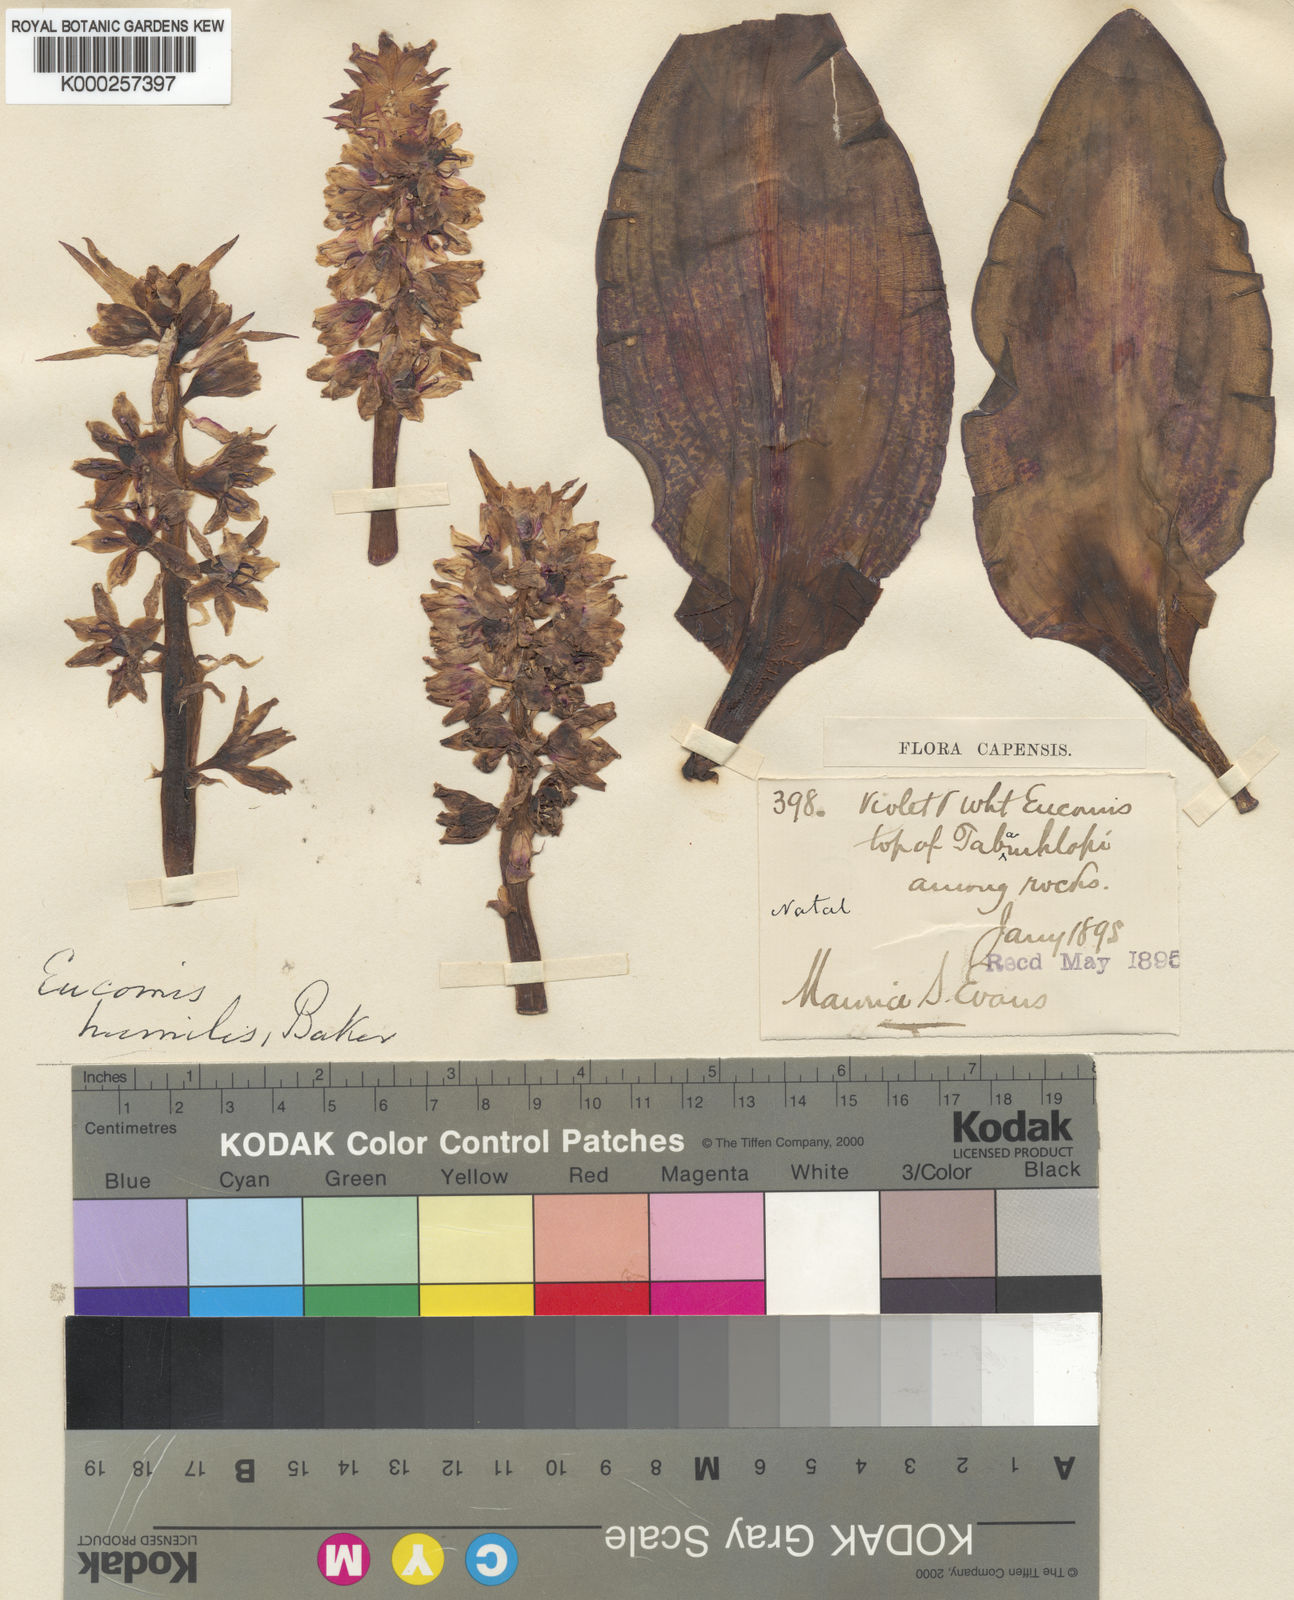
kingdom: Plantae
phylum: Tracheophyta
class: Liliopsida
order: Asparagales
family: Asparagaceae
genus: Eucomis
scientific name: Eucomis humilis
